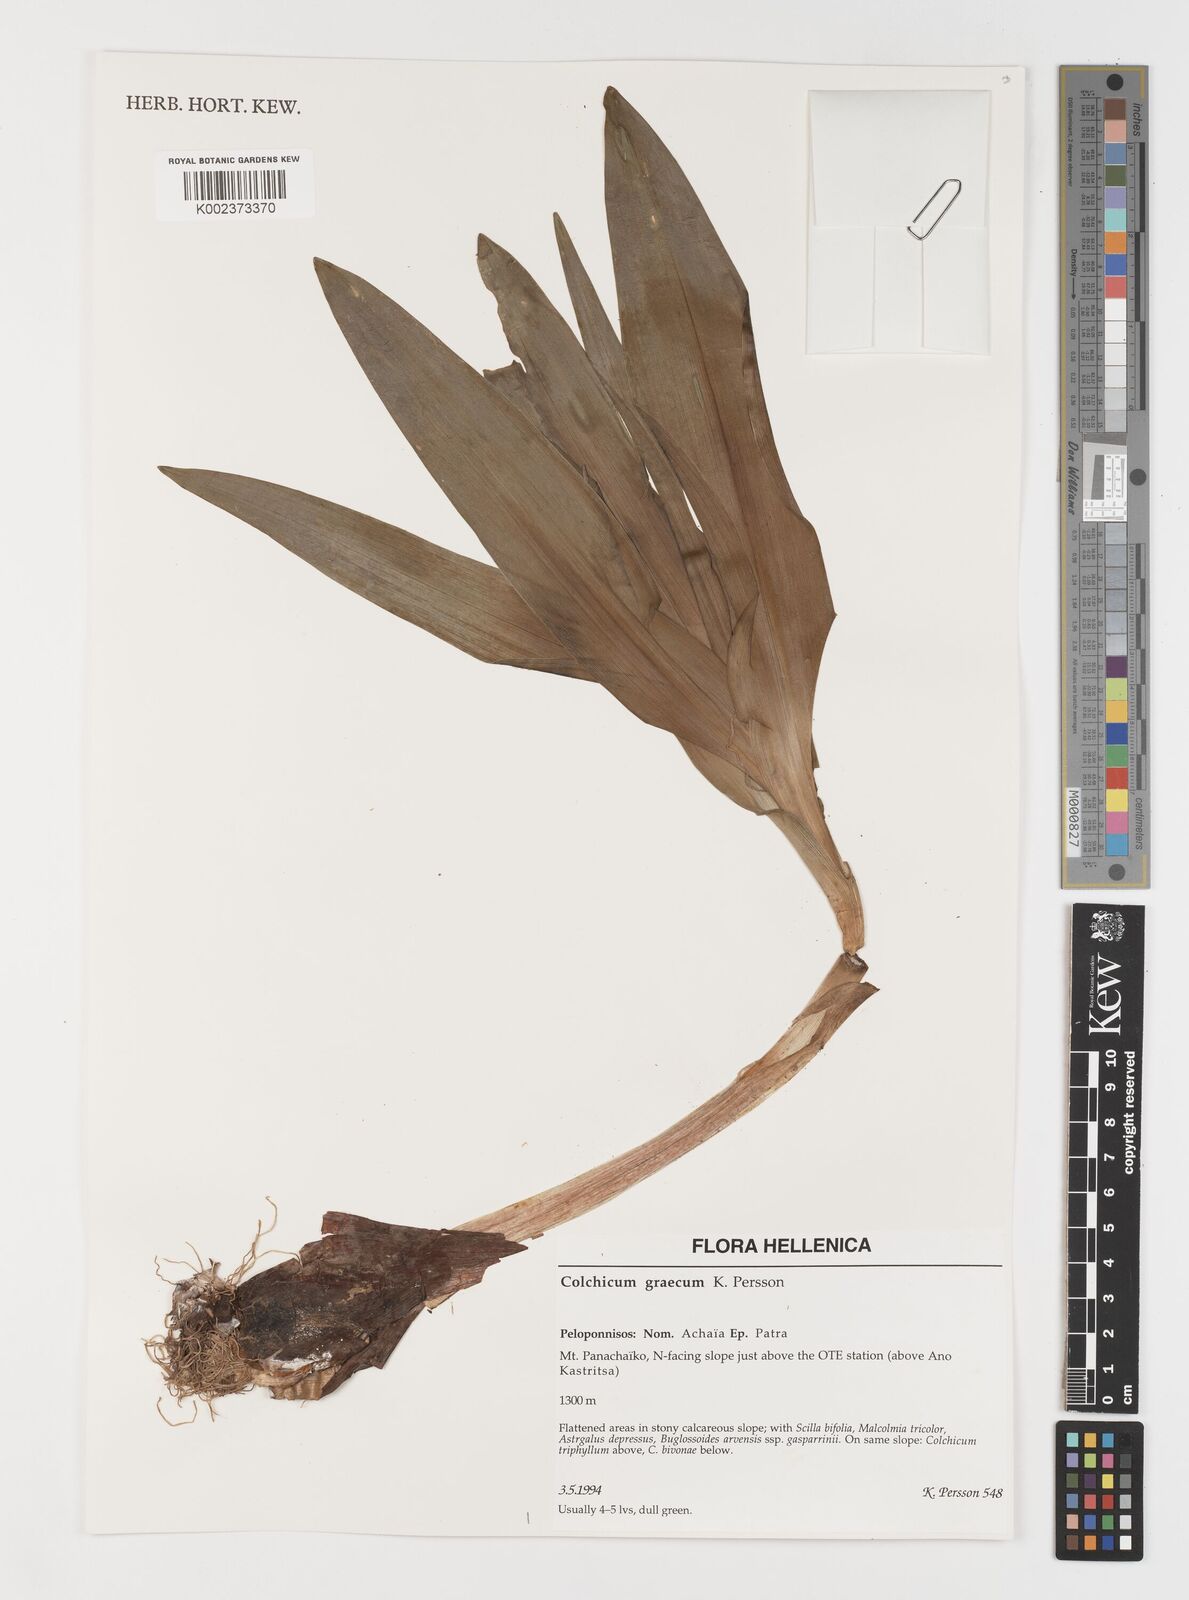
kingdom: Plantae
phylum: Tracheophyta
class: Liliopsida
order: Liliales
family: Colchicaceae
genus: Colchicum
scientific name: Colchicum graecum
